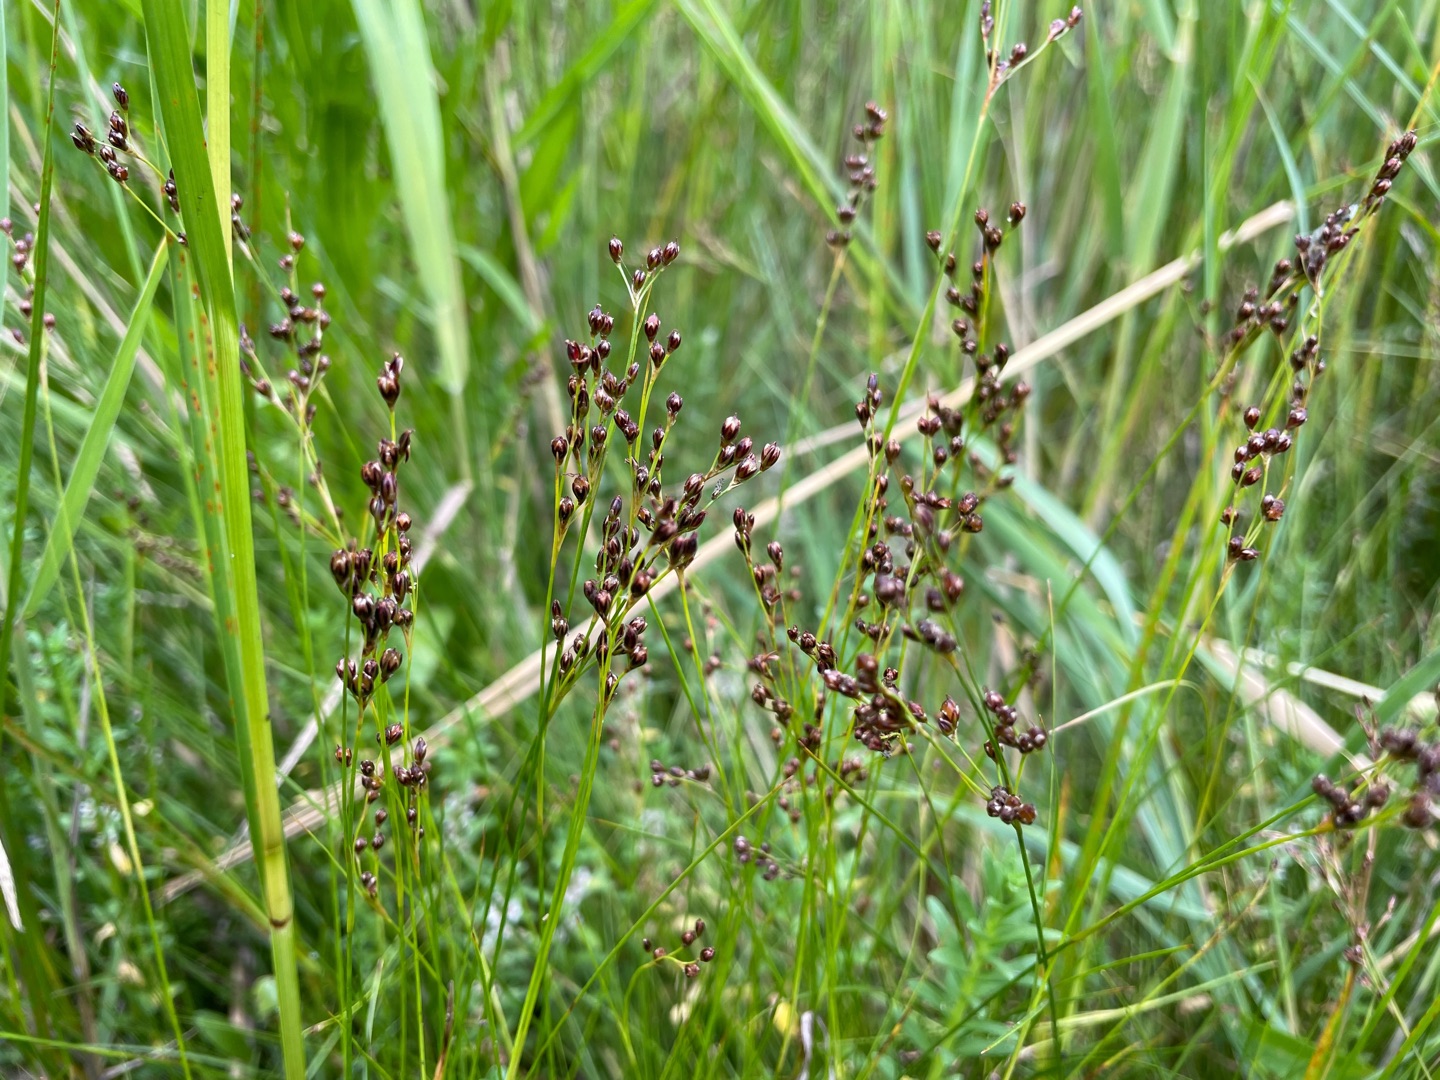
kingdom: Plantae
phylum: Tracheophyta
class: Liliopsida
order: Poales
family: Juncaceae
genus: Juncus
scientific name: Juncus gerardi
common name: Harril
